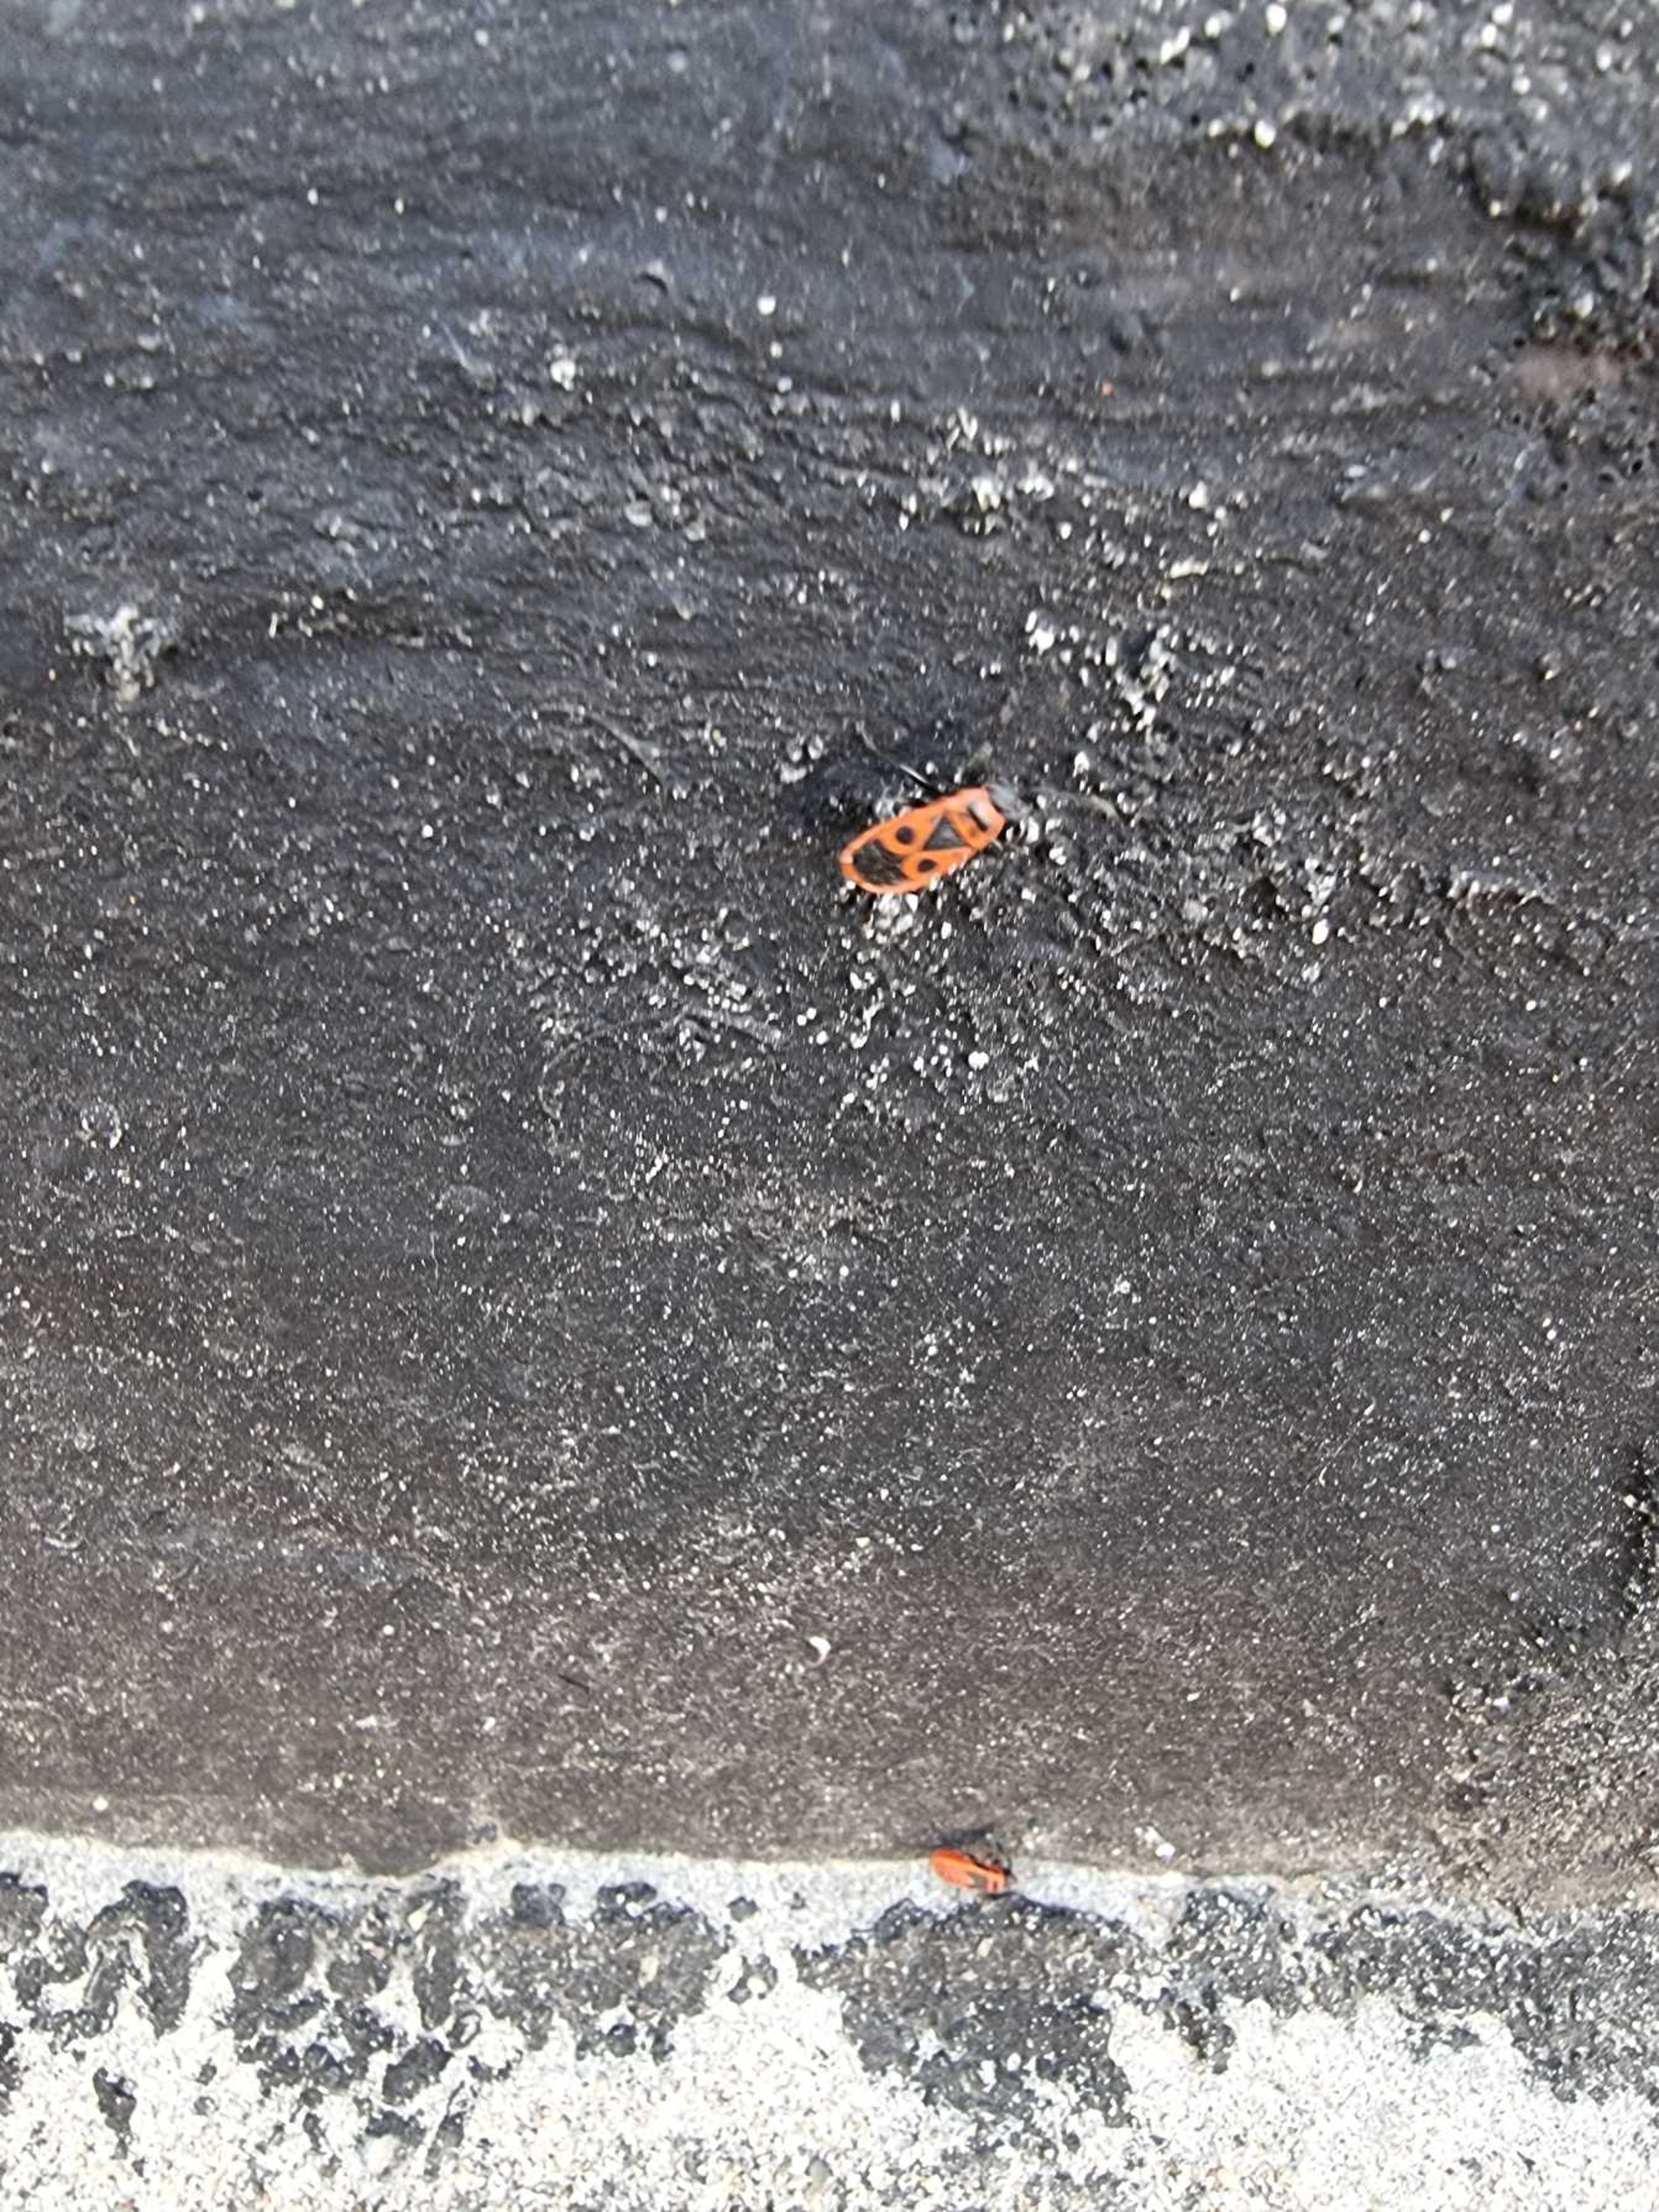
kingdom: Animalia
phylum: Arthropoda
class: Insecta
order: Hemiptera
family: Pyrrhocoridae
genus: Pyrrhocoris
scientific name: Pyrrhocoris apterus
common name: Ildtæge
